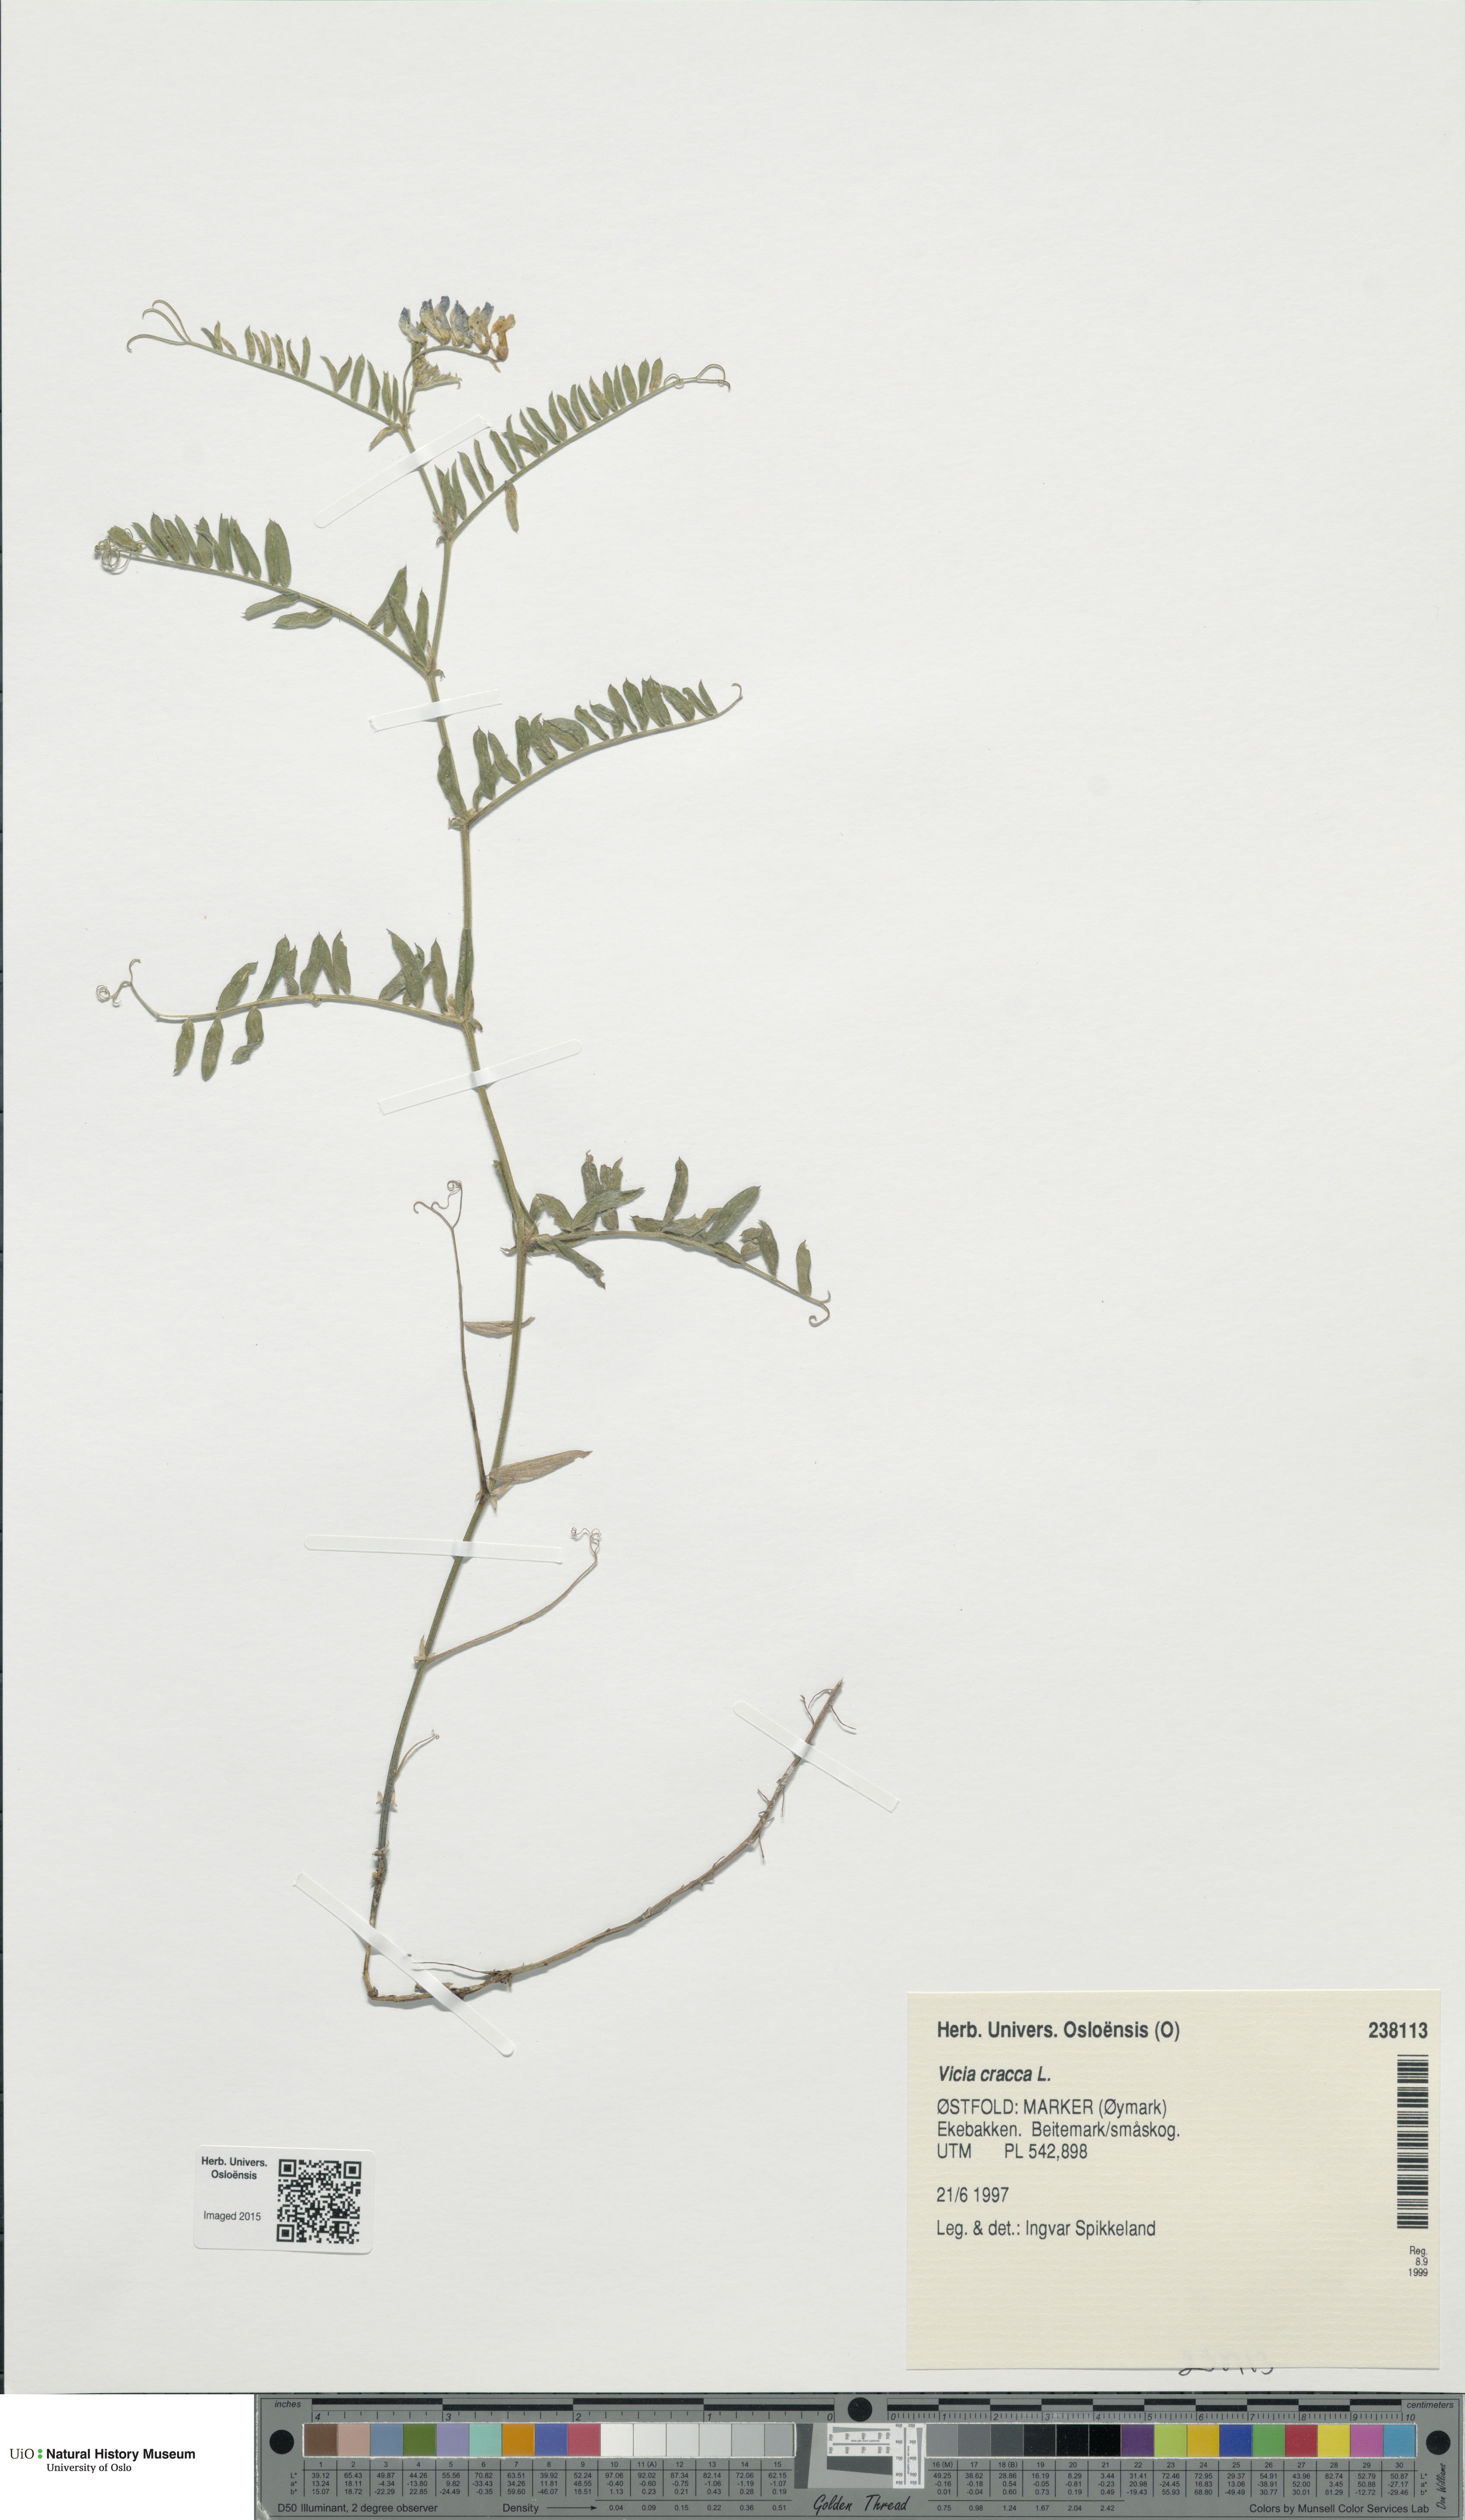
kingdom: Plantae
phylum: Tracheophyta
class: Magnoliopsida
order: Fabales
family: Fabaceae
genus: Vicia
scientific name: Vicia cracca
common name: Bird vetch
